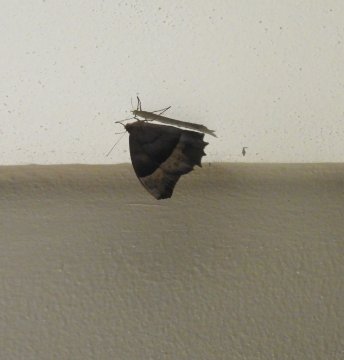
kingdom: Animalia
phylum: Arthropoda
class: Insecta
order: Lepidoptera
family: Nymphalidae
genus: Taygetis
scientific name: Taygetis thamyra
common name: Thamyra Satyr
